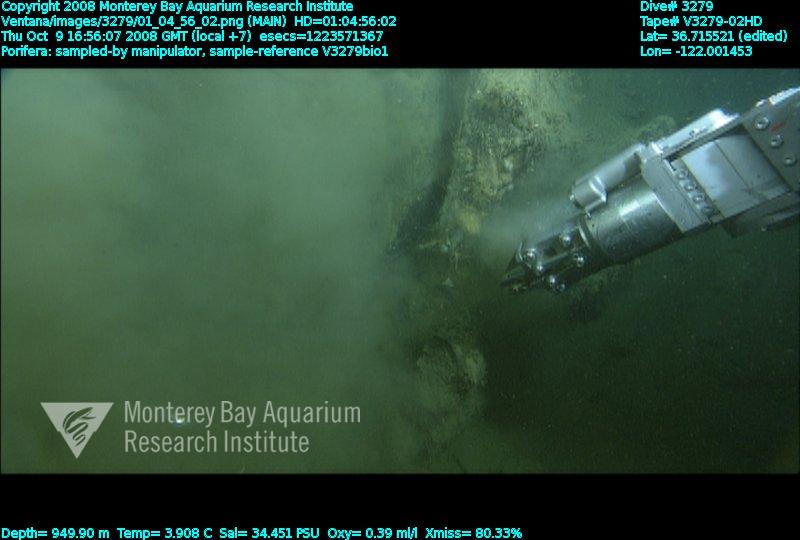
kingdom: Animalia
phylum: Porifera
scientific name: Porifera
